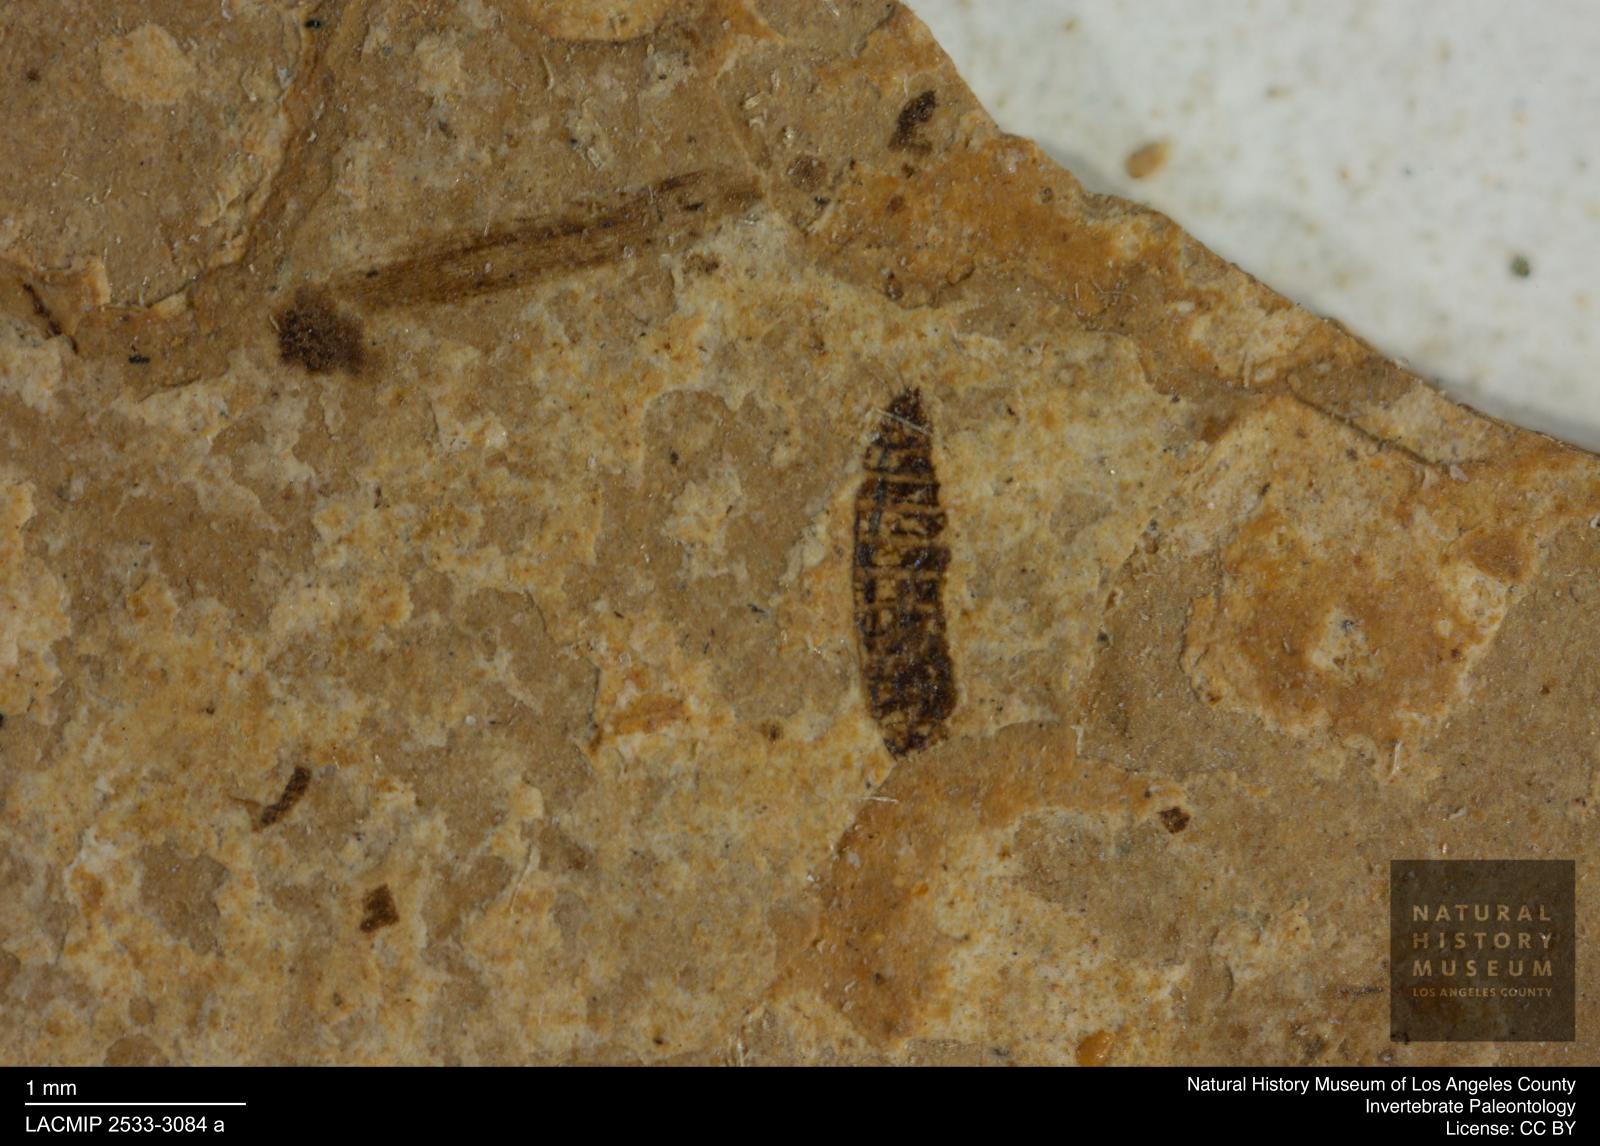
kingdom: Animalia
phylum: Arthropoda
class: Insecta
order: Thysanoptera
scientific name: Thysanoptera
